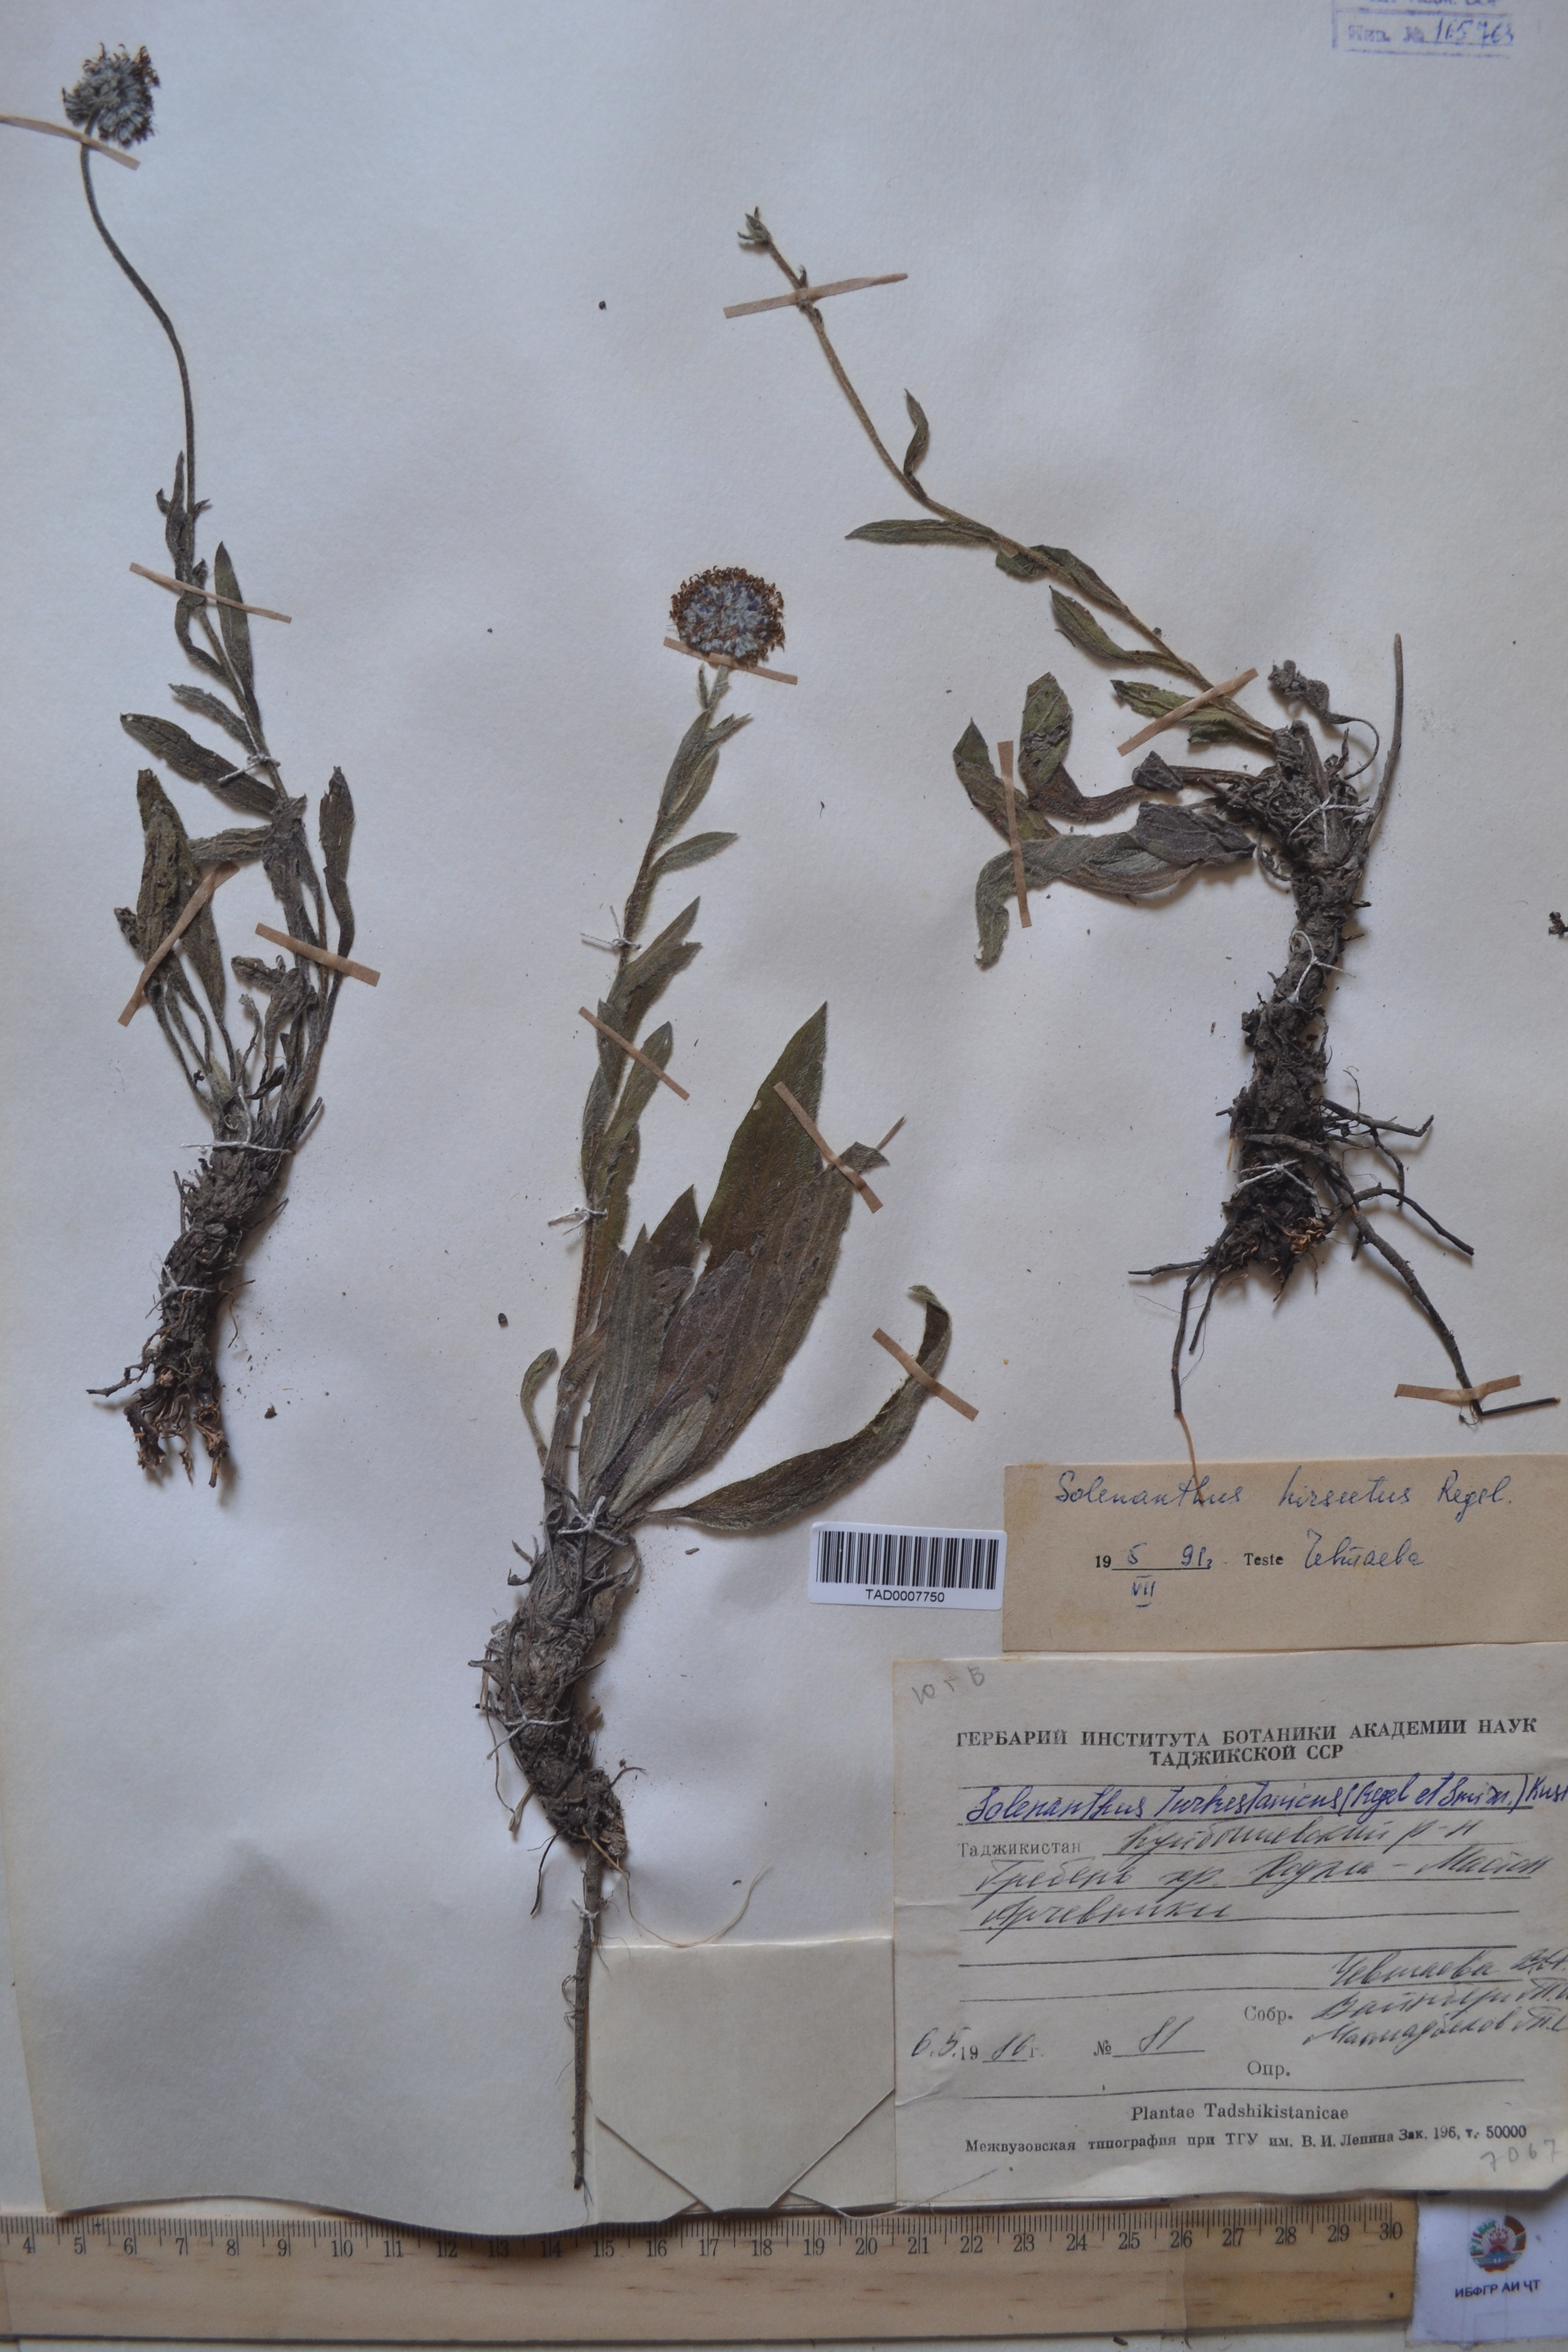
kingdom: Plantae
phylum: Tracheophyta
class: Magnoliopsida
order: Boraginales
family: Boraginaceae
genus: Solenanthus
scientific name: Solenanthus turkestanicus
